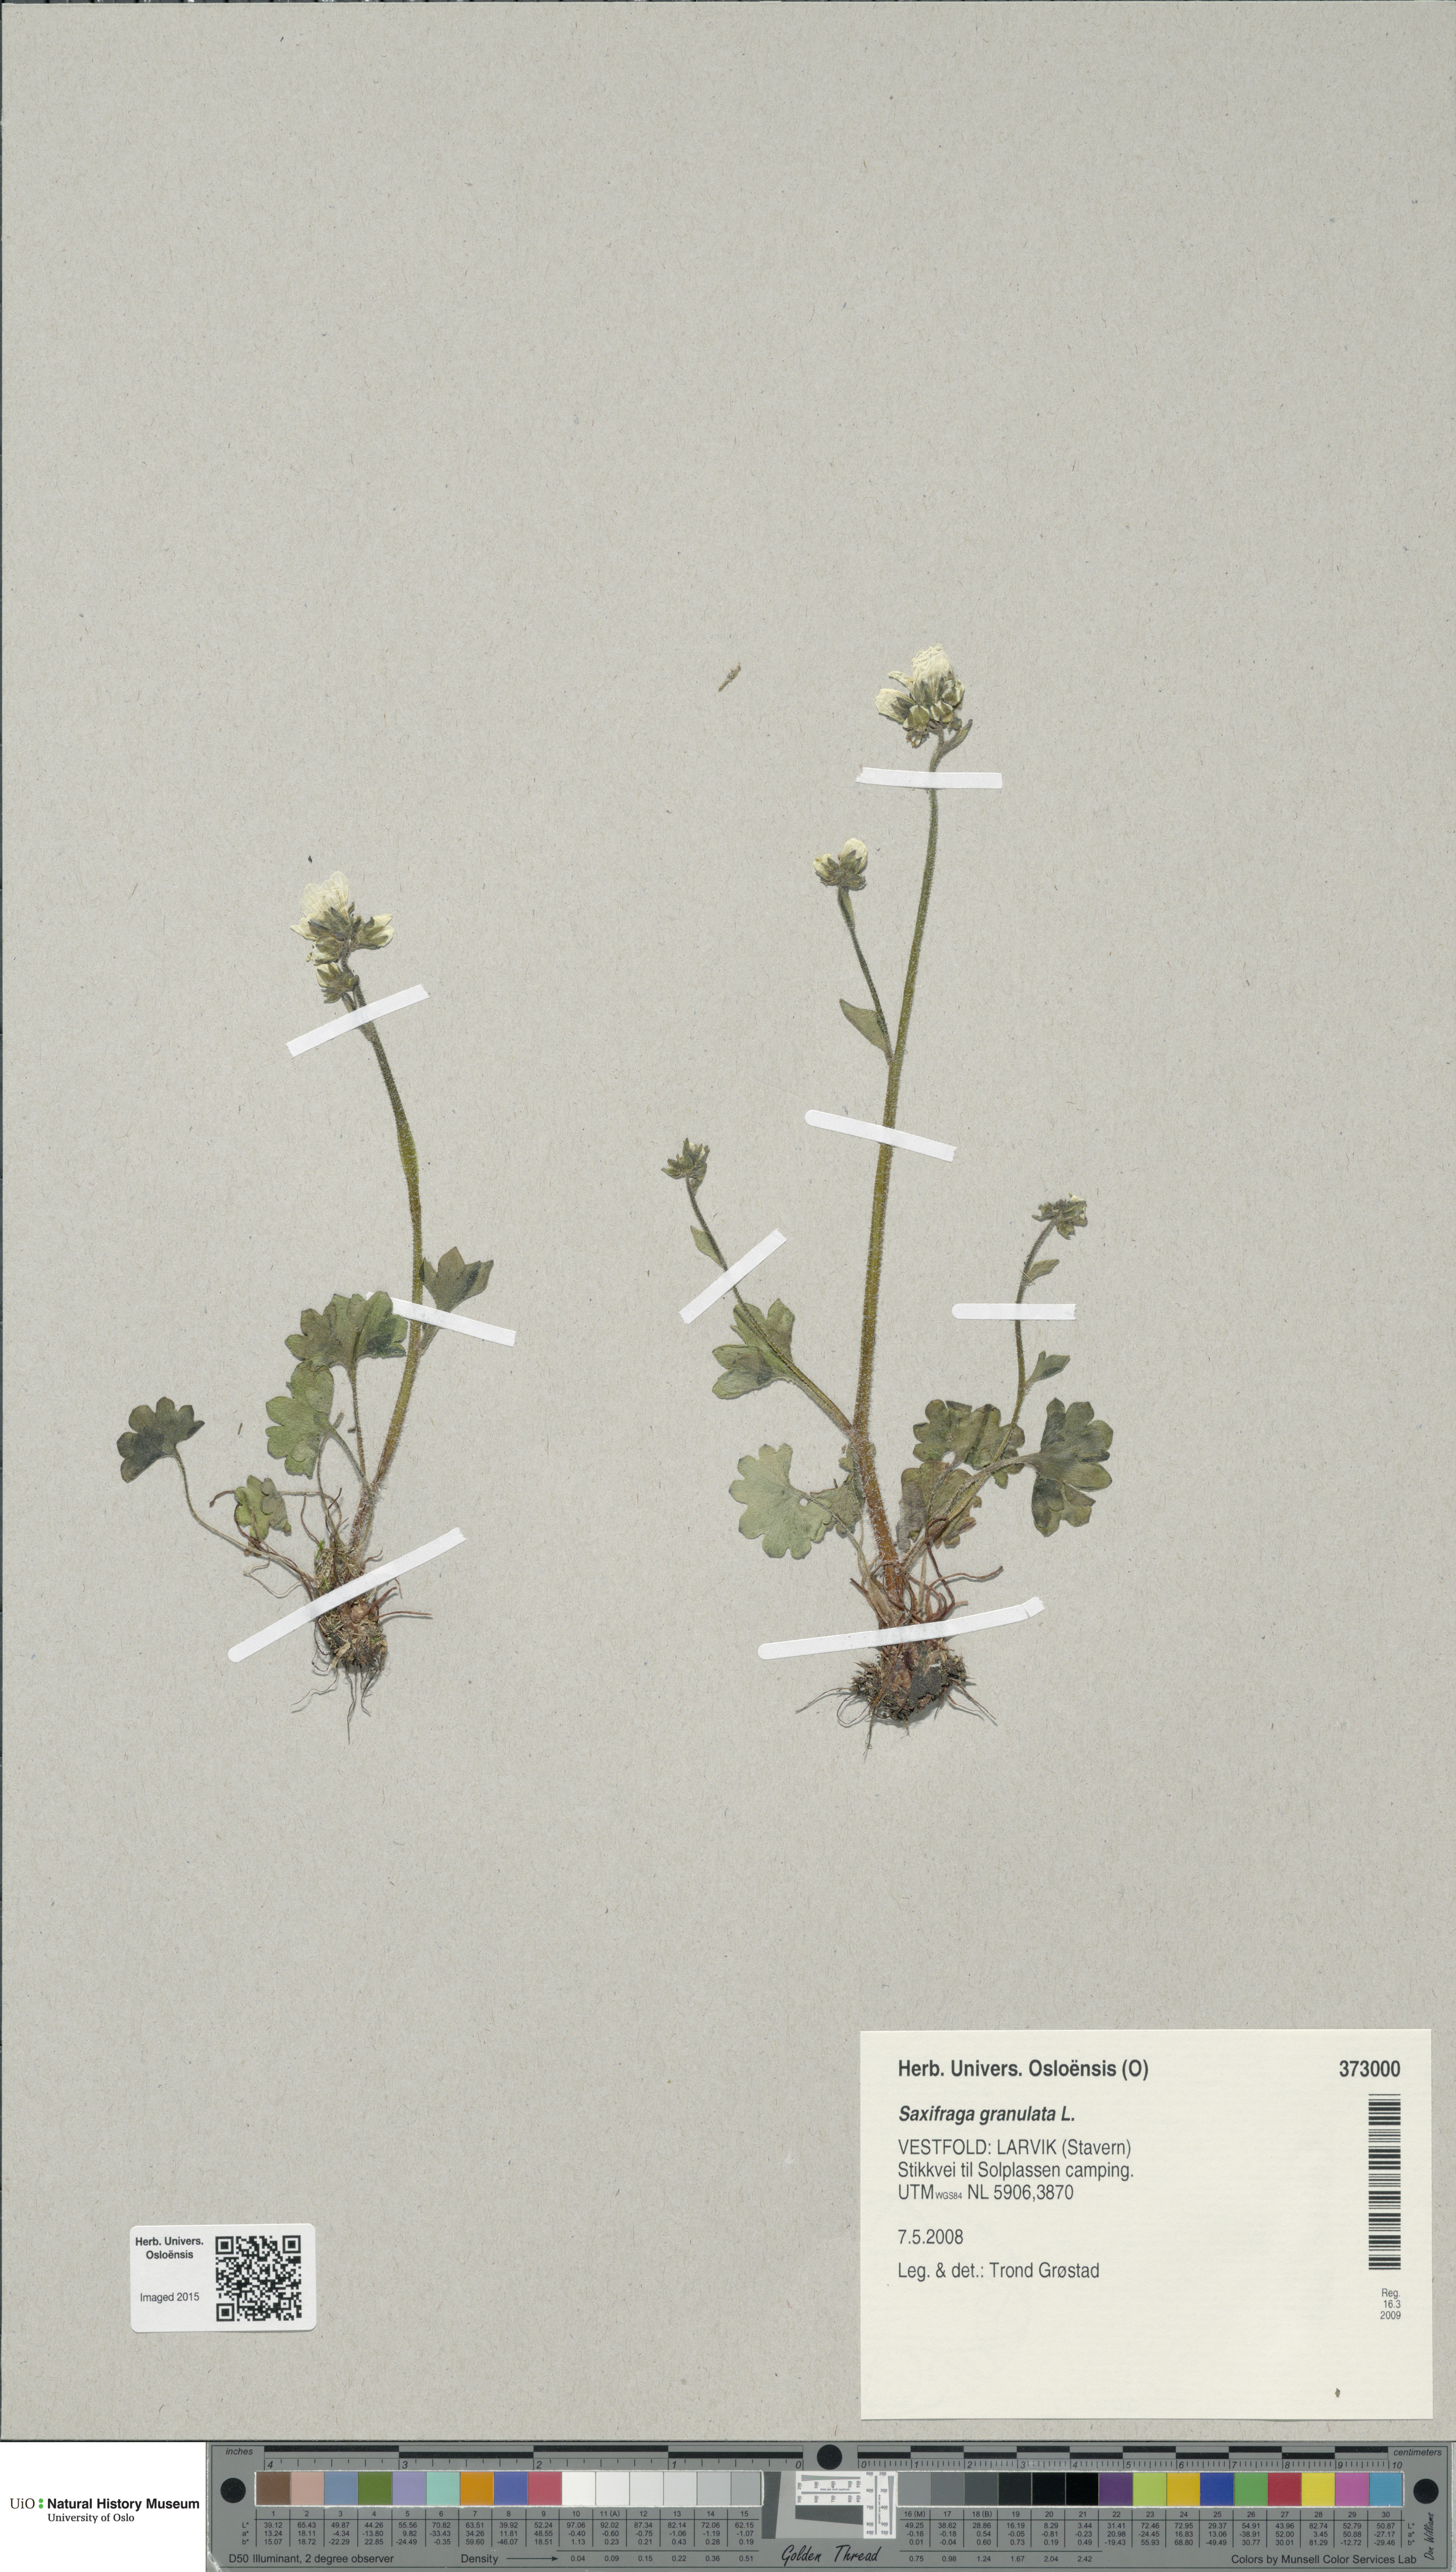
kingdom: Plantae
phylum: Tracheophyta
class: Magnoliopsida
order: Saxifragales
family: Saxifragaceae
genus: Saxifraga
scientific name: Saxifraga granulata
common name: Meadow saxifrage
